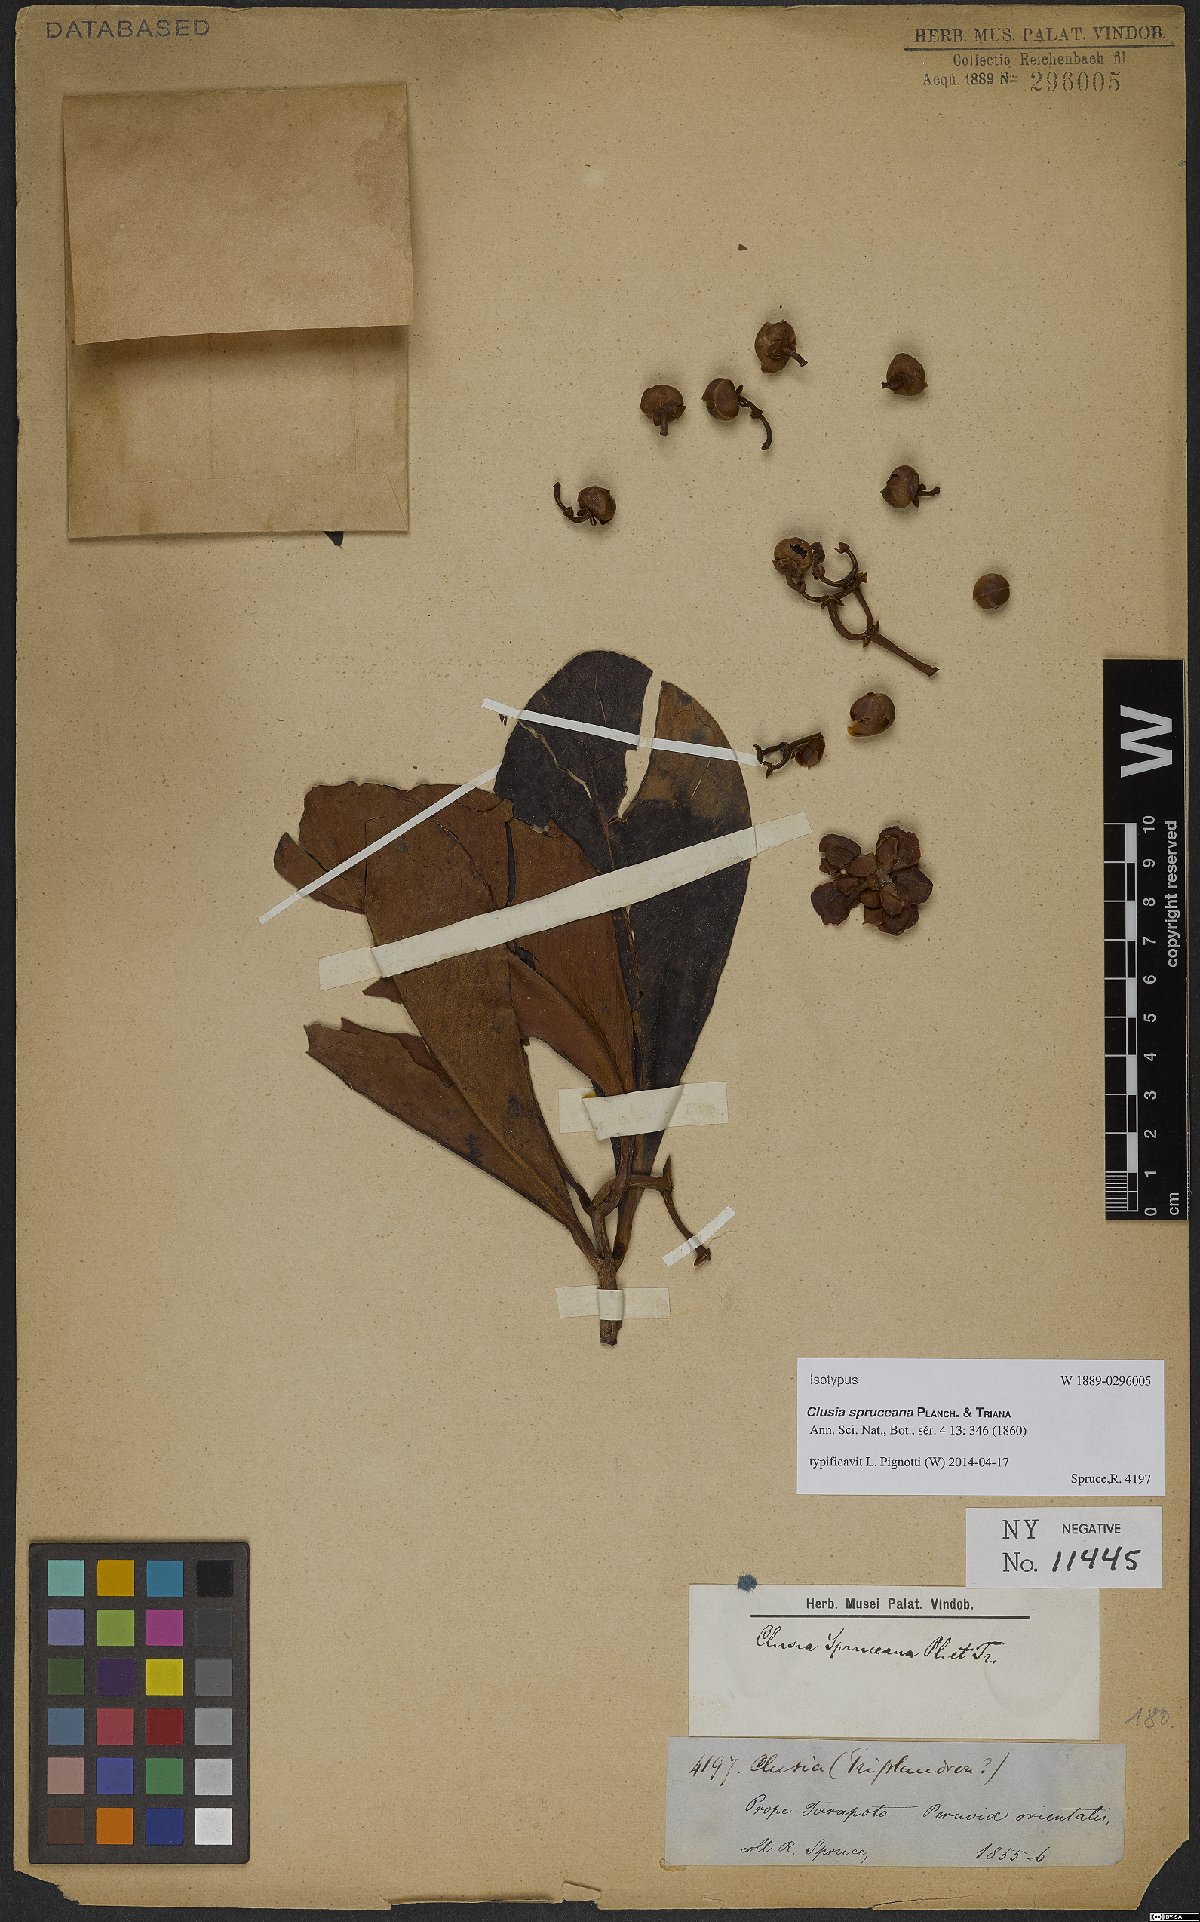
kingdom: Plantae
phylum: Tracheophyta
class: Magnoliopsida
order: Malpighiales
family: Clusiaceae
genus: Clusia
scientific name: Clusia spruceana
